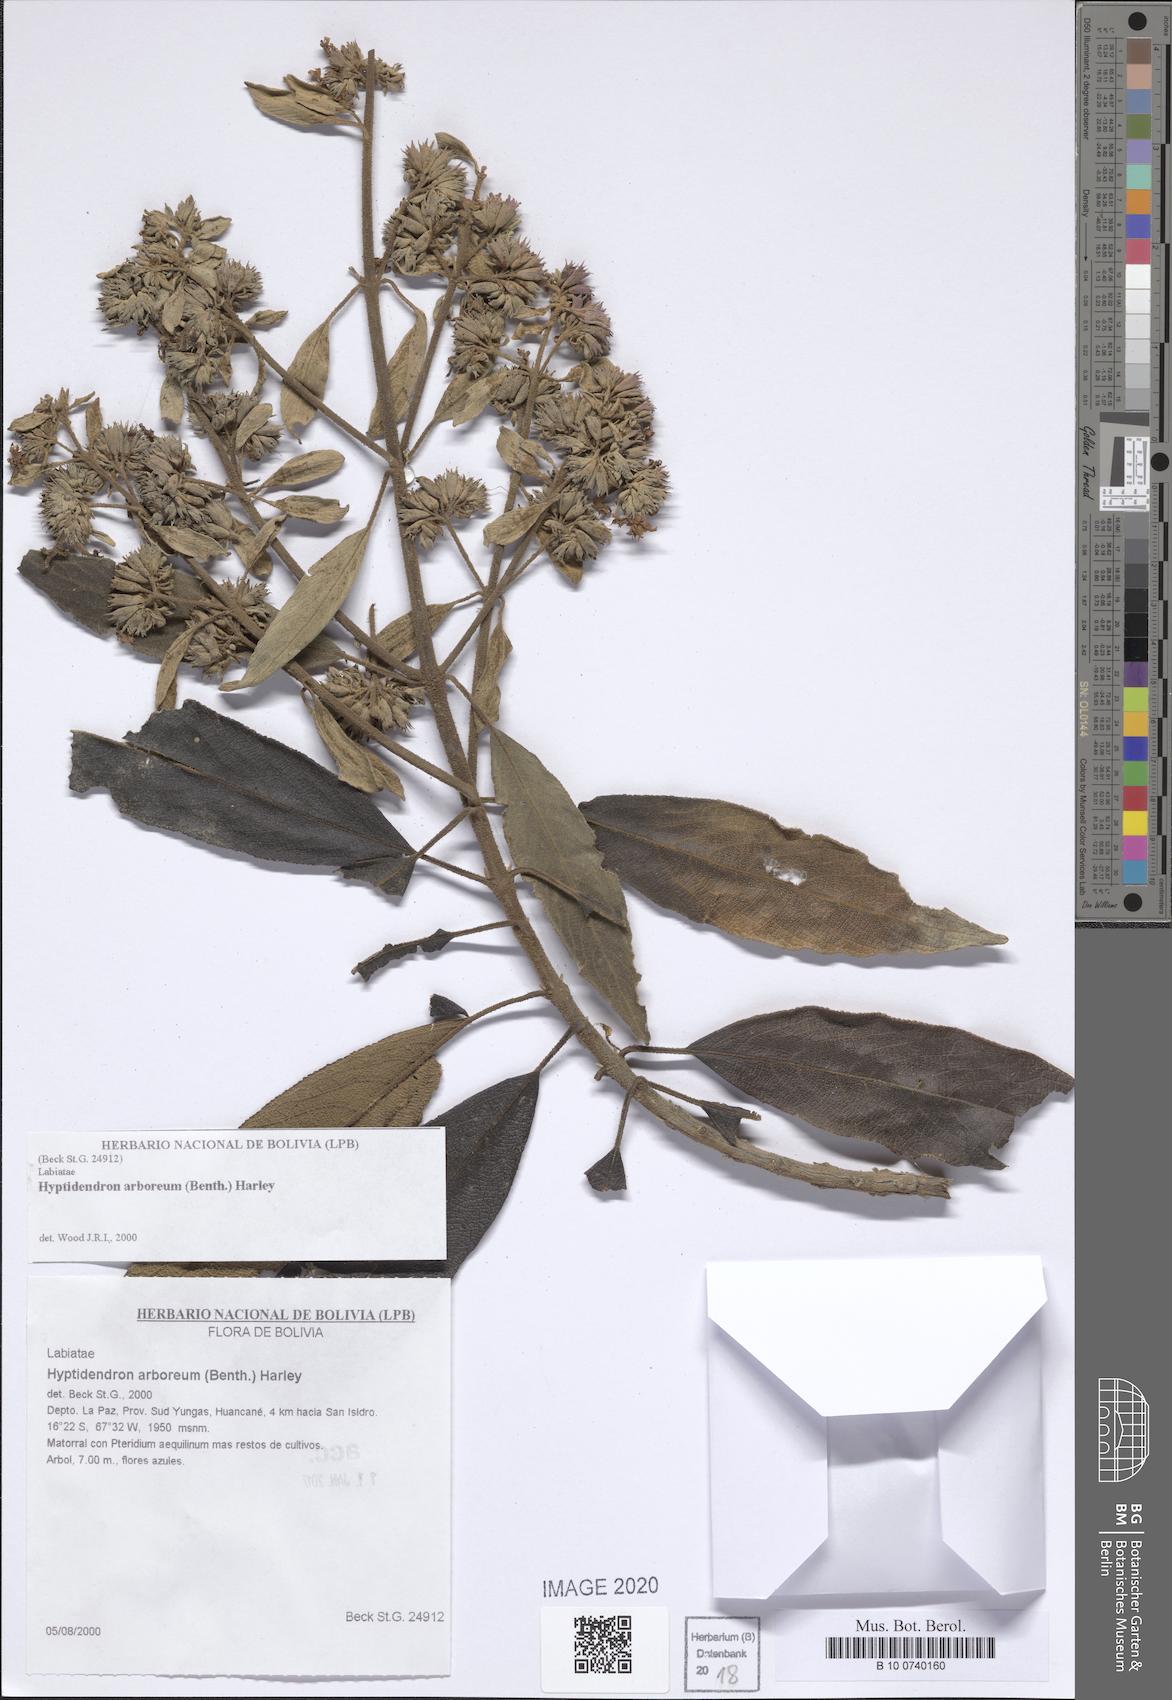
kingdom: Plantae
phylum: Tracheophyta
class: Magnoliopsida
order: Lamiales
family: Lamiaceae
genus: Hyptidendron
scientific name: Hyptidendron arboreum
